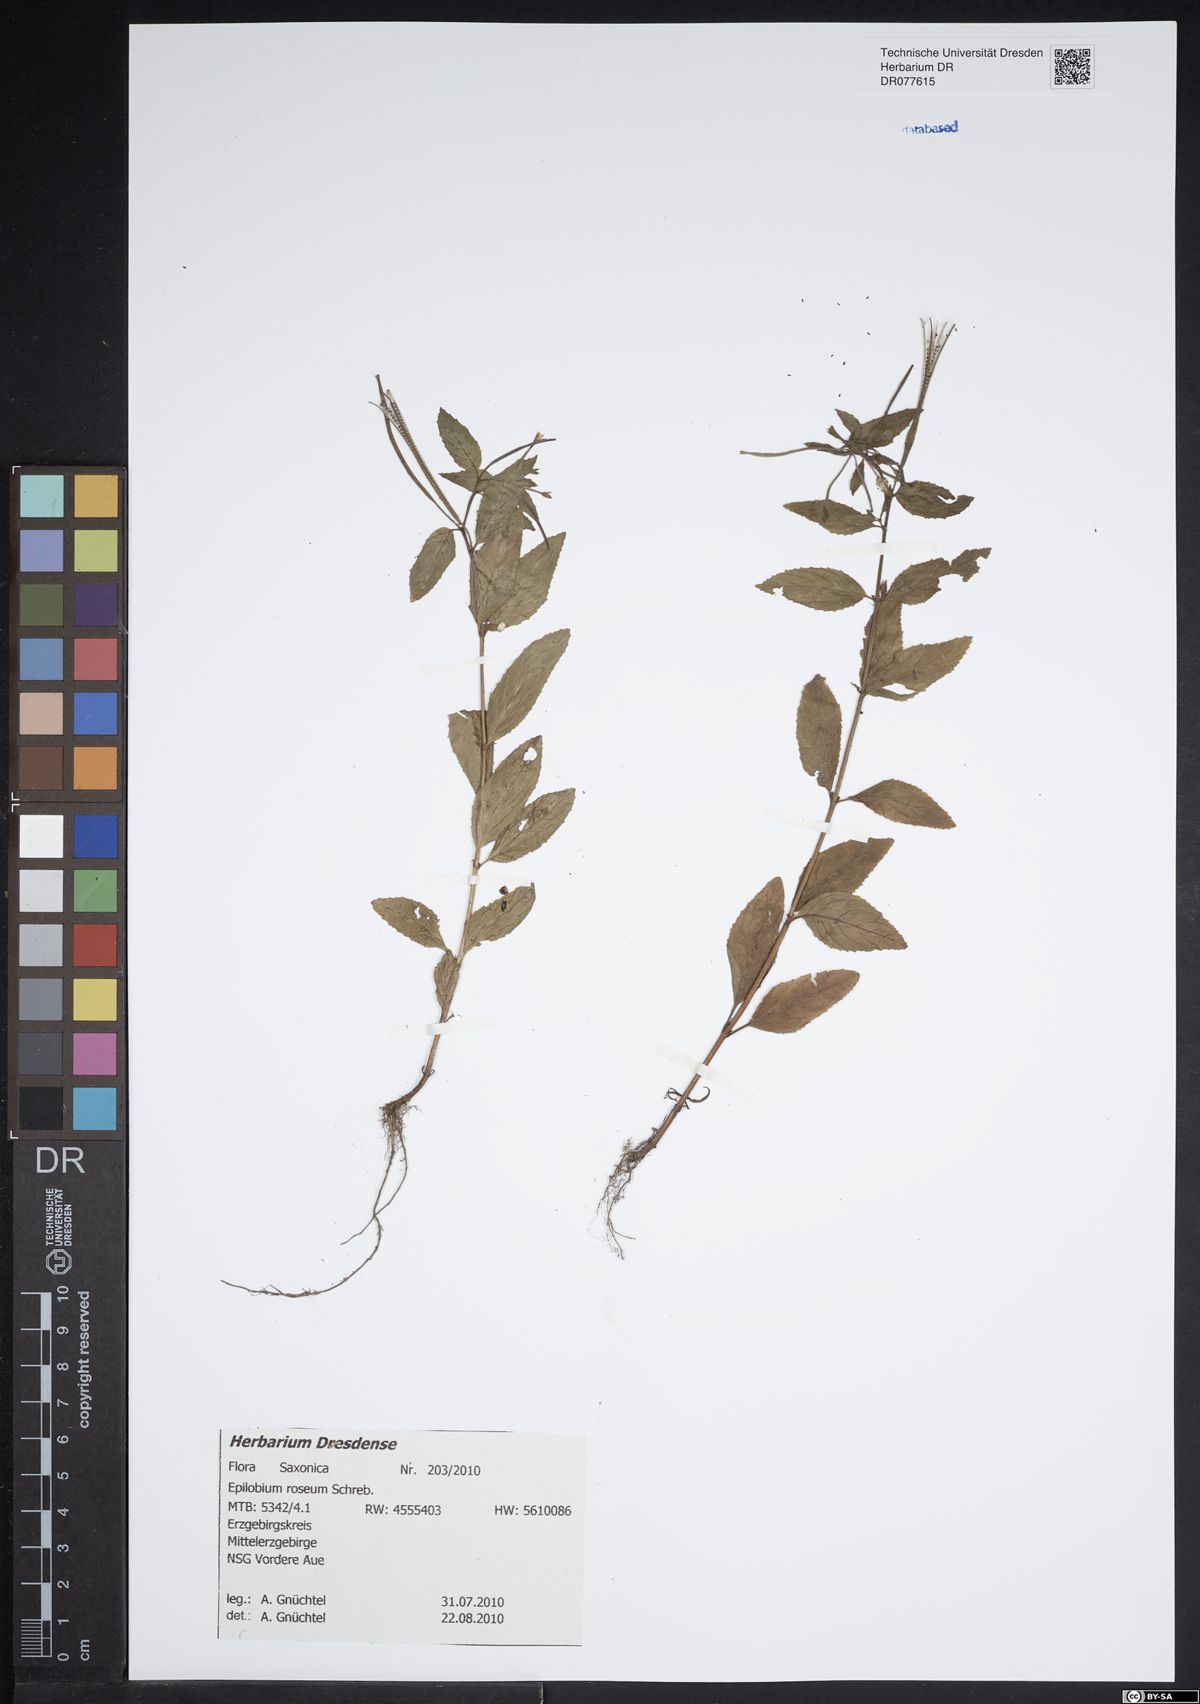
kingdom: Plantae
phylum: Tracheophyta
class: Magnoliopsida
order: Myrtales
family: Onagraceae
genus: Epilobium
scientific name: Epilobium roseum
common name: Pale willowherb
